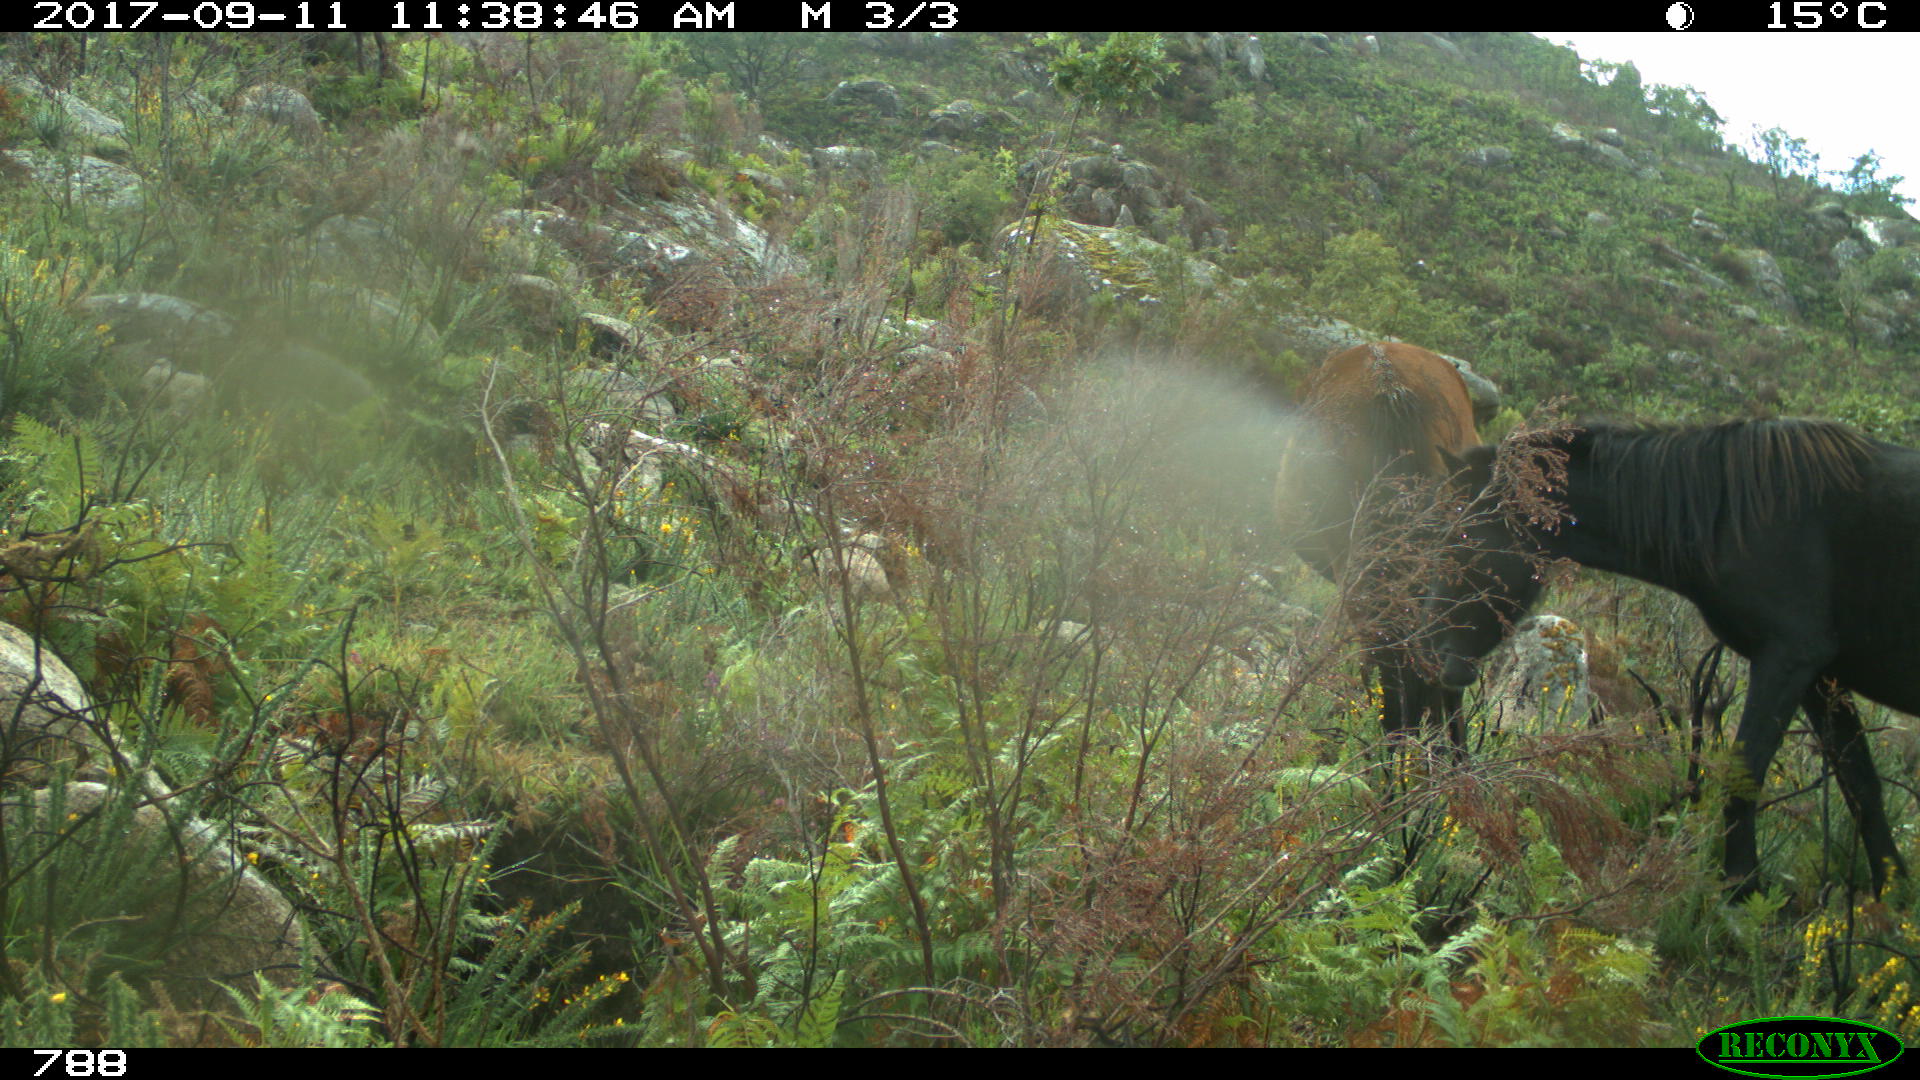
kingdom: Animalia
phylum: Chordata
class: Mammalia
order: Perissodactyla
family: Equidae
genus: Equus
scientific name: Equus caballus
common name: Horse
